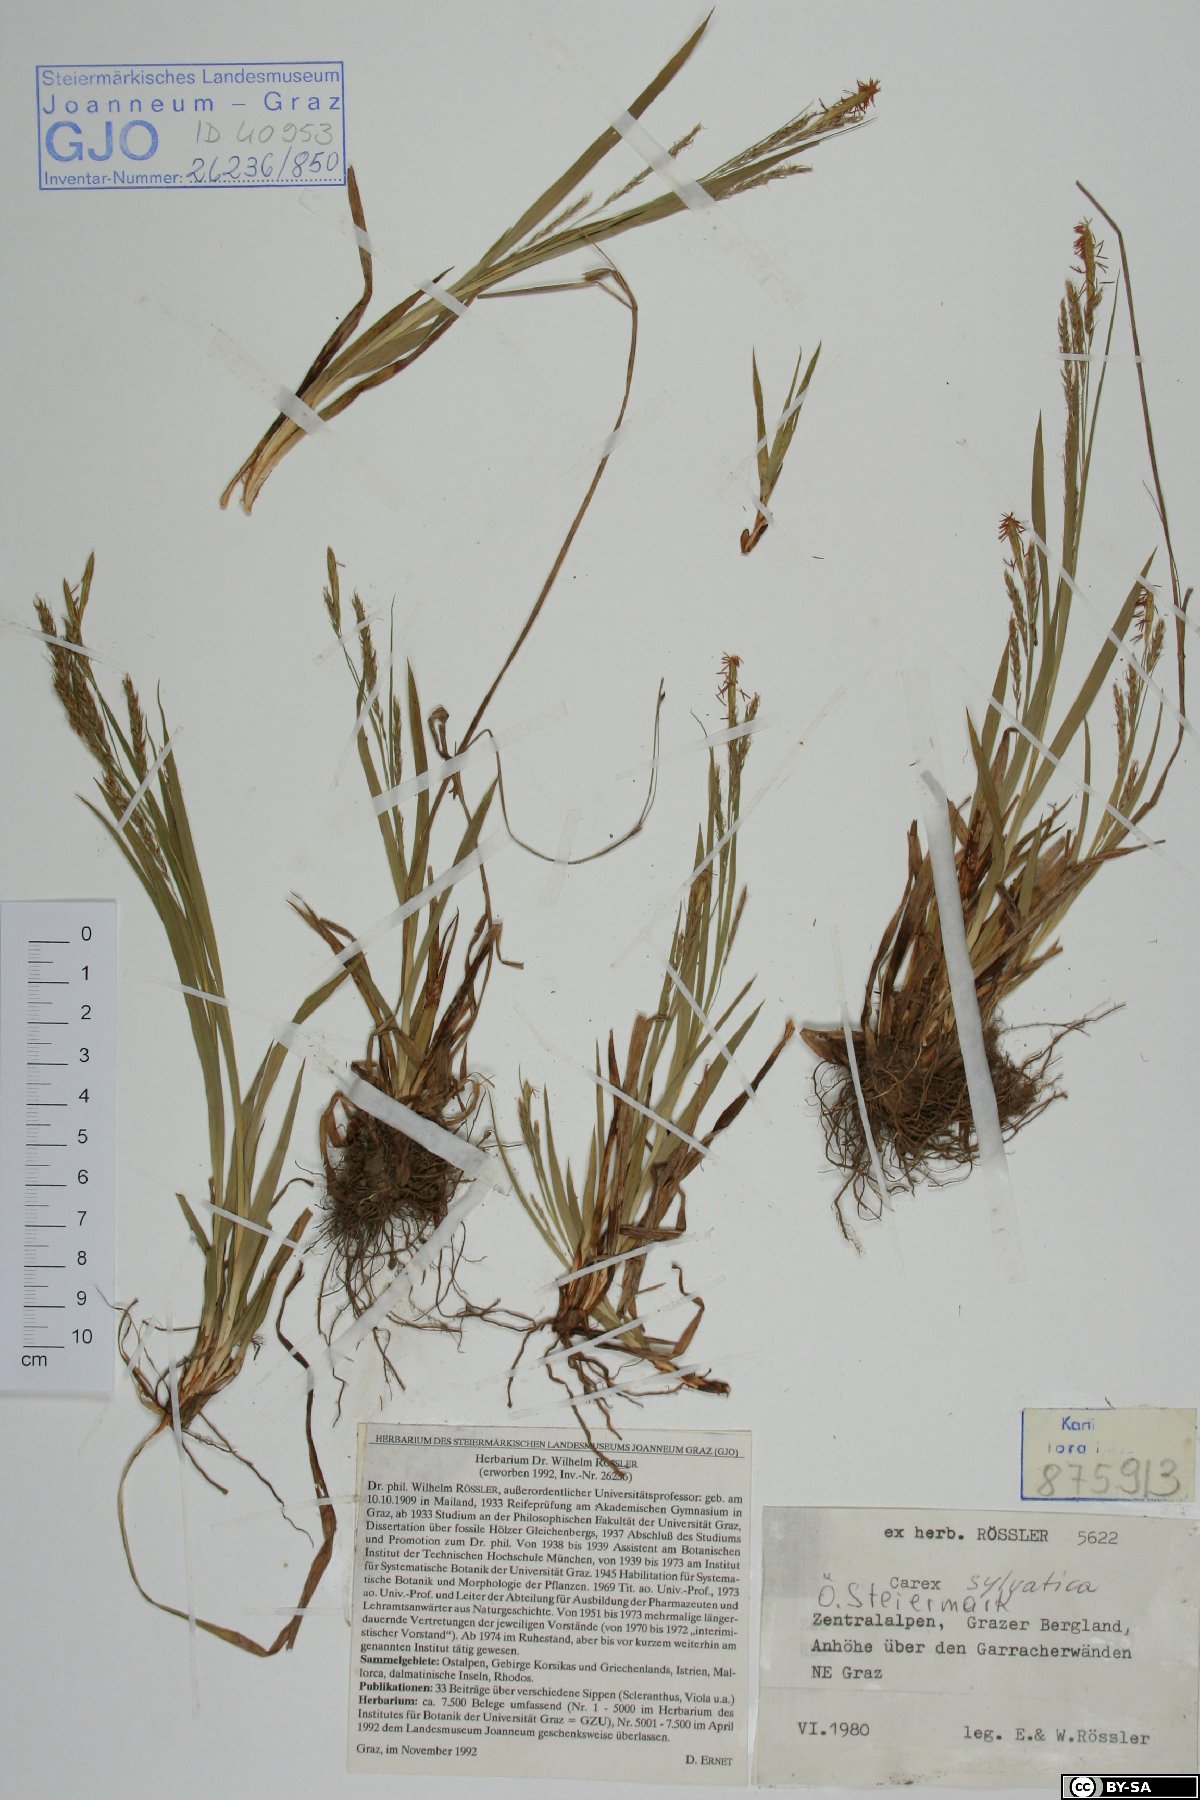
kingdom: Plantae
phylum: Tracheophyta
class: Liliopsida
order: Poales
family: Cyperaceae
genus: Carex
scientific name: Carex sylvatica
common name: Wood-sedge
